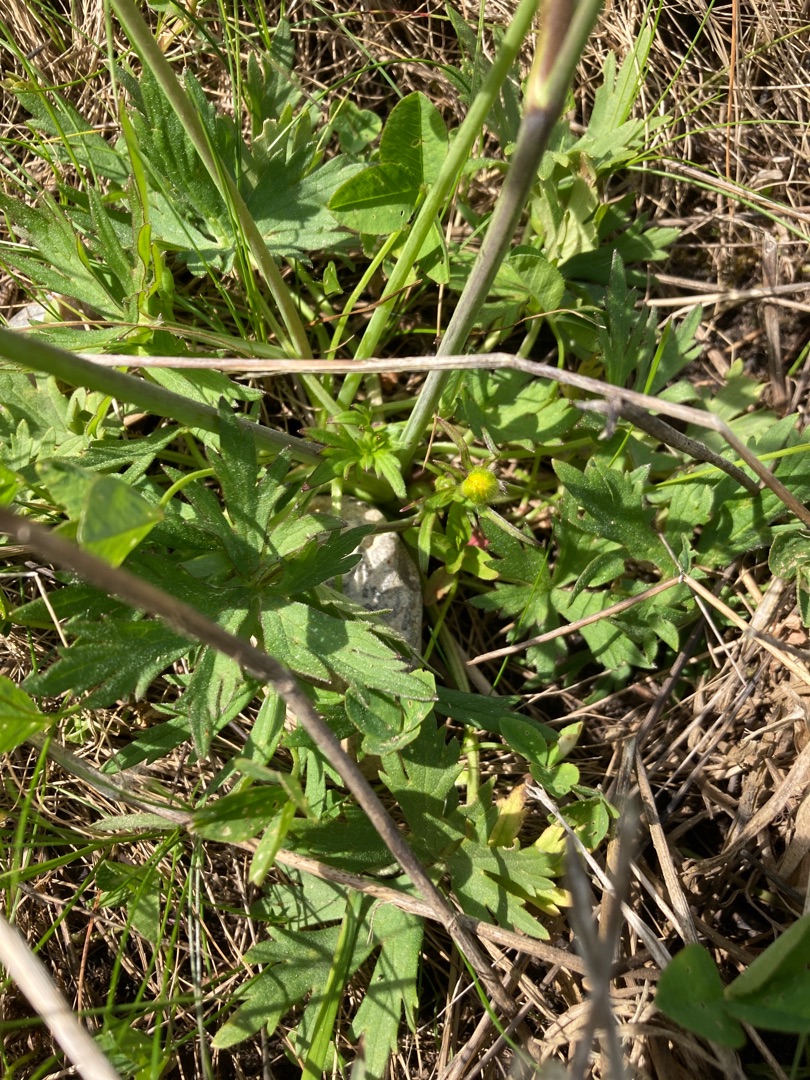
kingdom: Plantae
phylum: Tracheophyta
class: Magnoliopsida
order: Ranunculales
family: Ranunculaceae
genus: Ranunculus
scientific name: Ranunculus acris
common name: Bidende ranunkel
